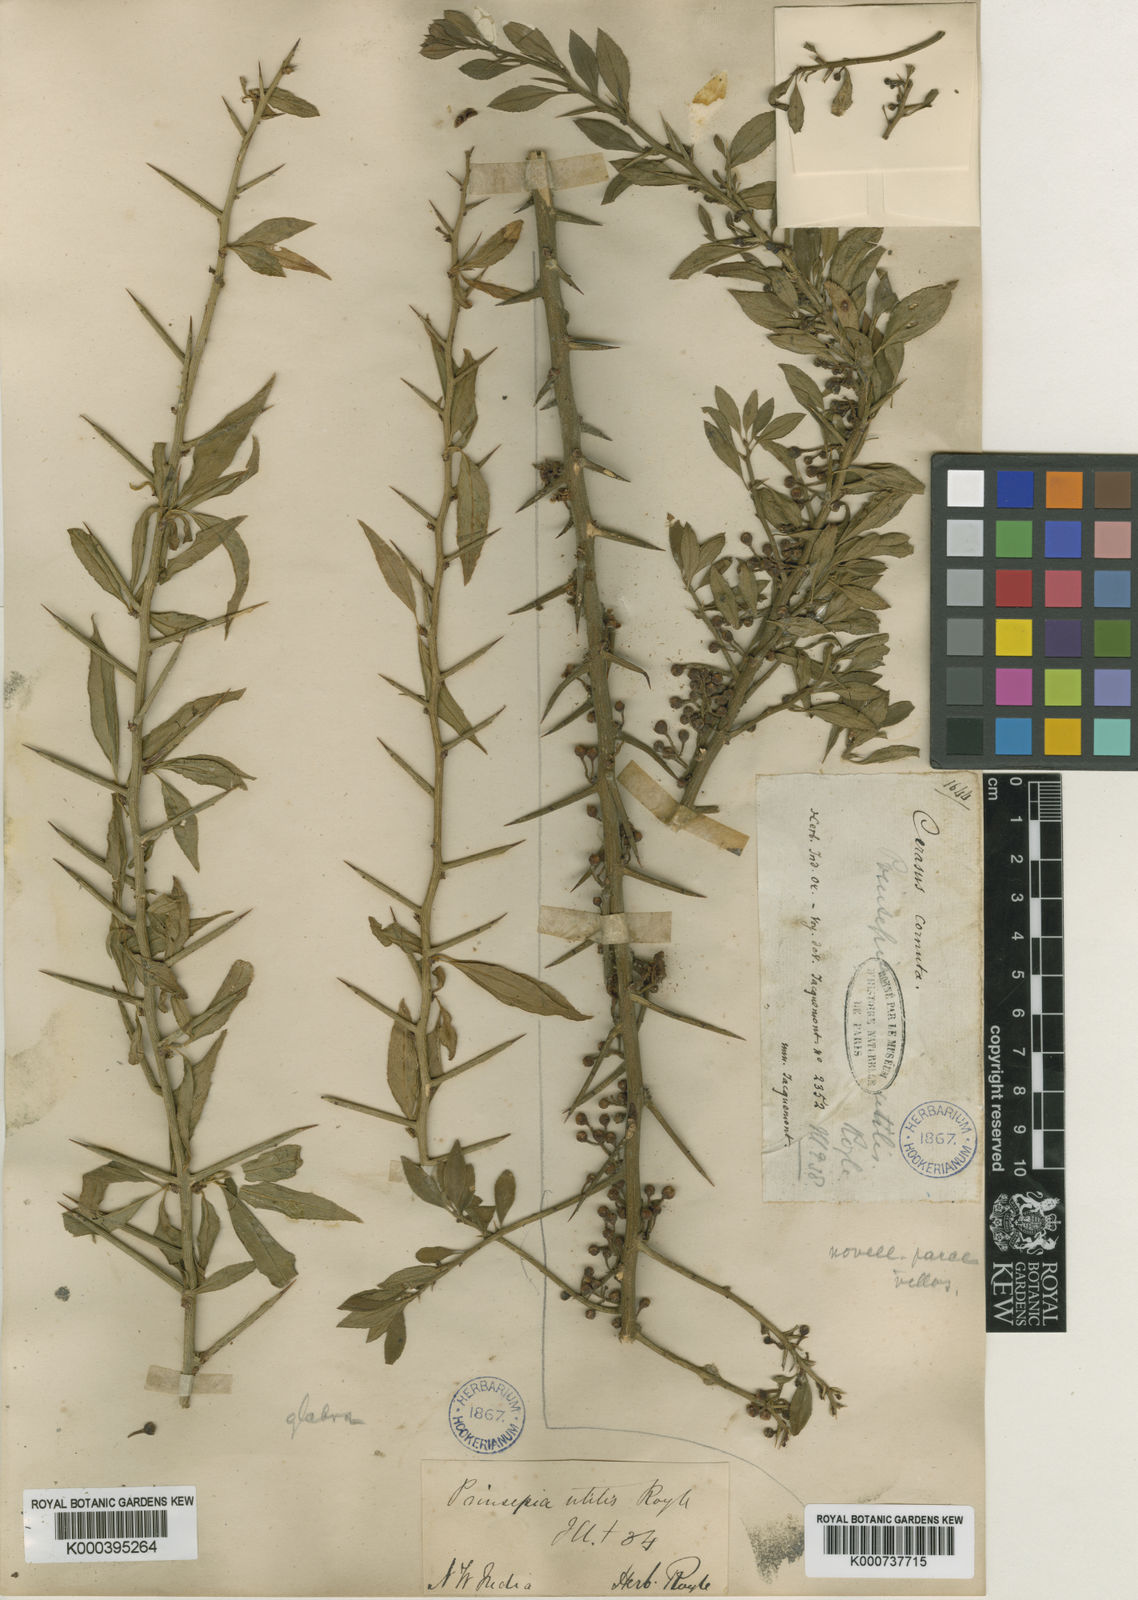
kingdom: Plantae
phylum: Tracheophyta
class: Magnoliopsida
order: Rosales
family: Rosaceae
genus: Prinsepia
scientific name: Prinsepia utilis
